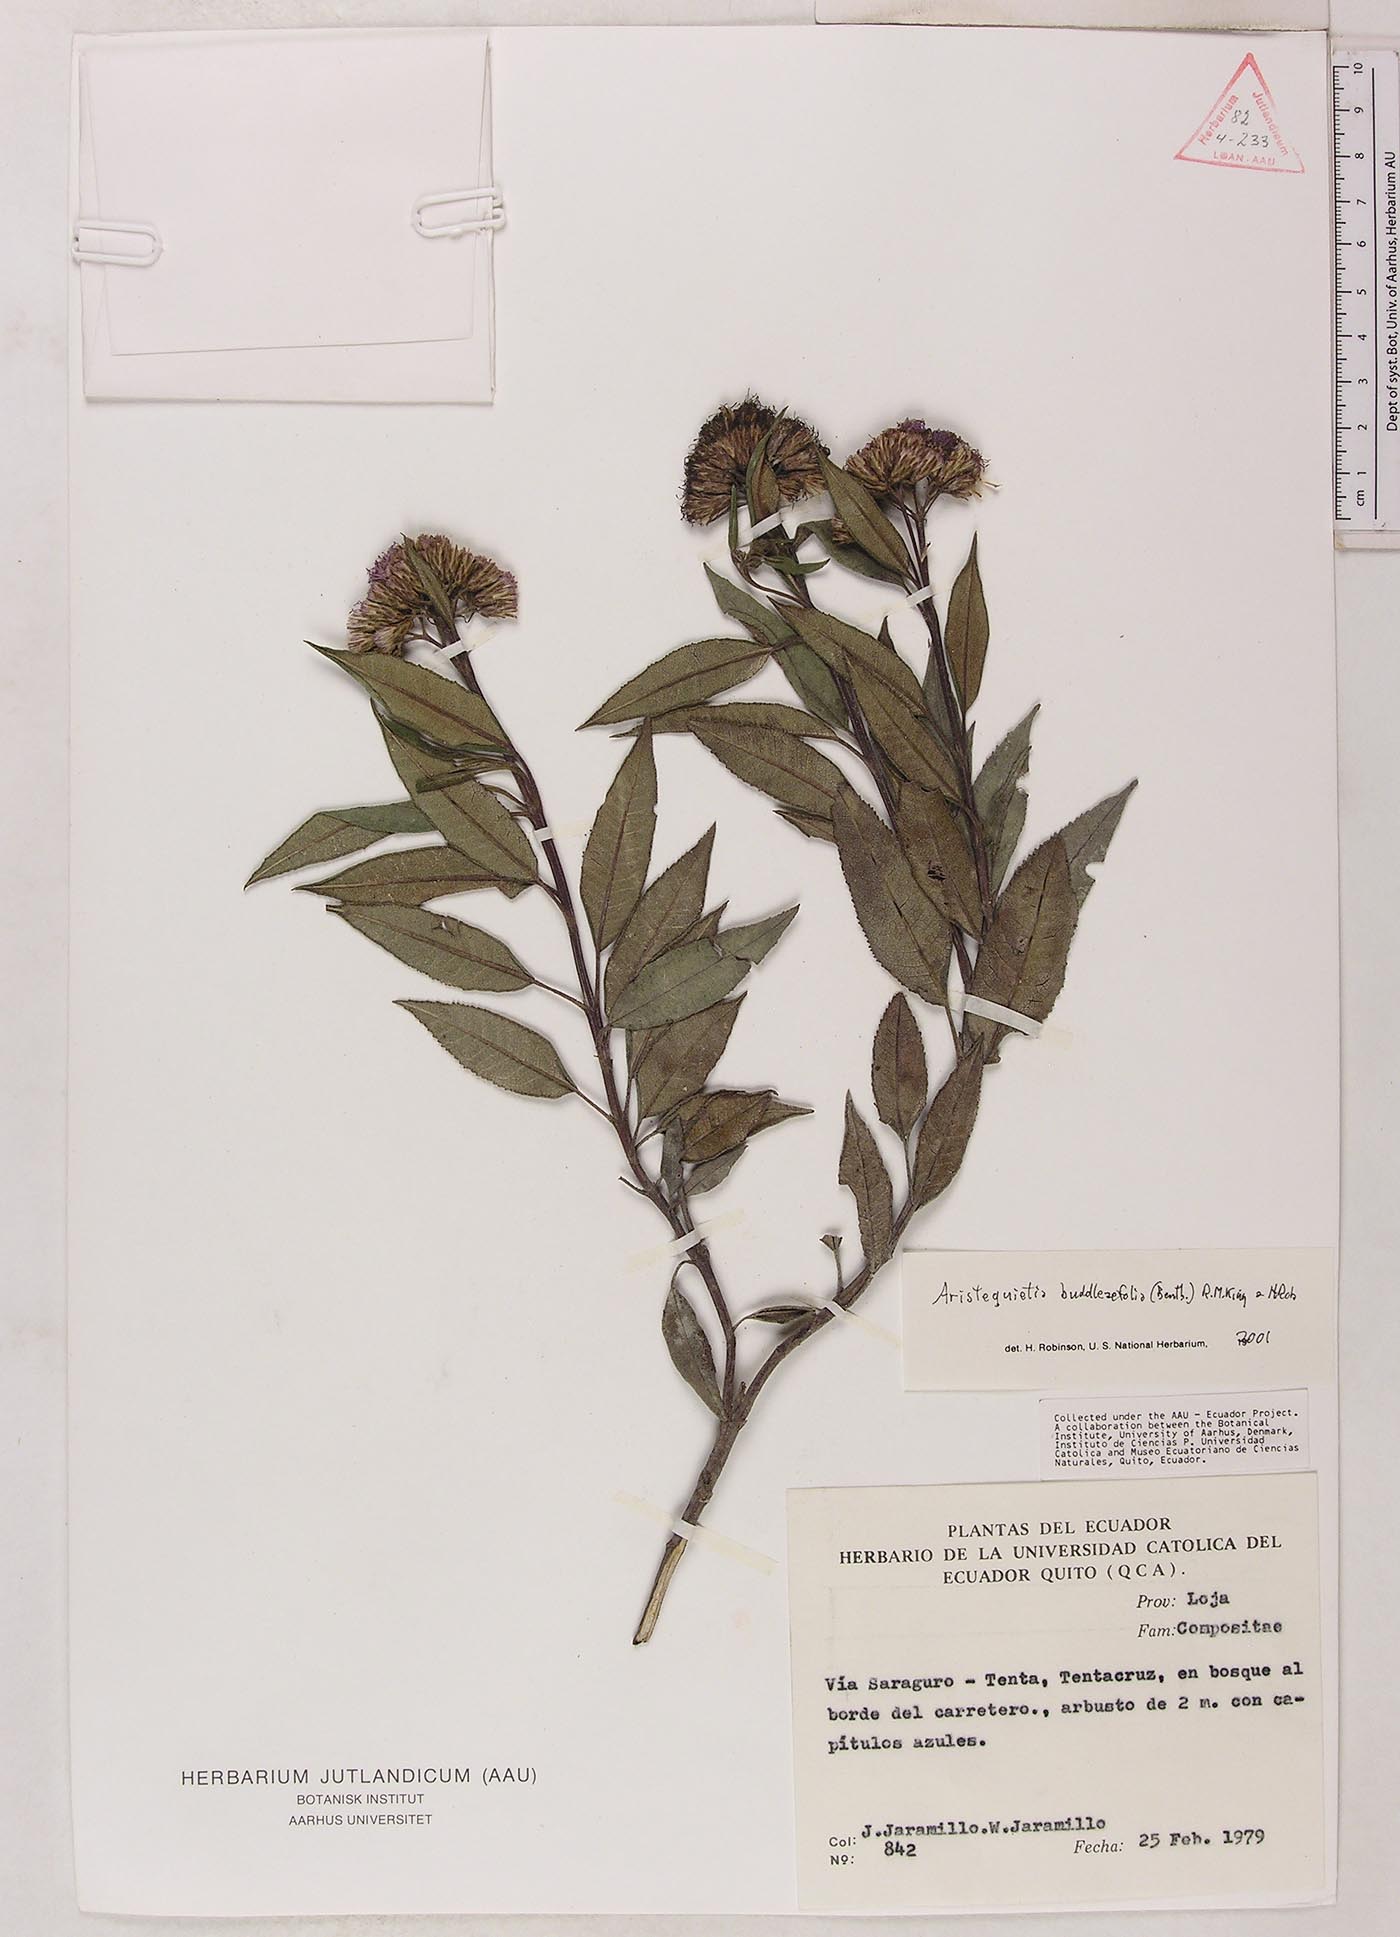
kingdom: Plantae
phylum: Tracheophyta
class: Magnoliopsida
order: Asterales
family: Asteraceae
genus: Aristeguietia
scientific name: Aristeguietia buddleaefolia
